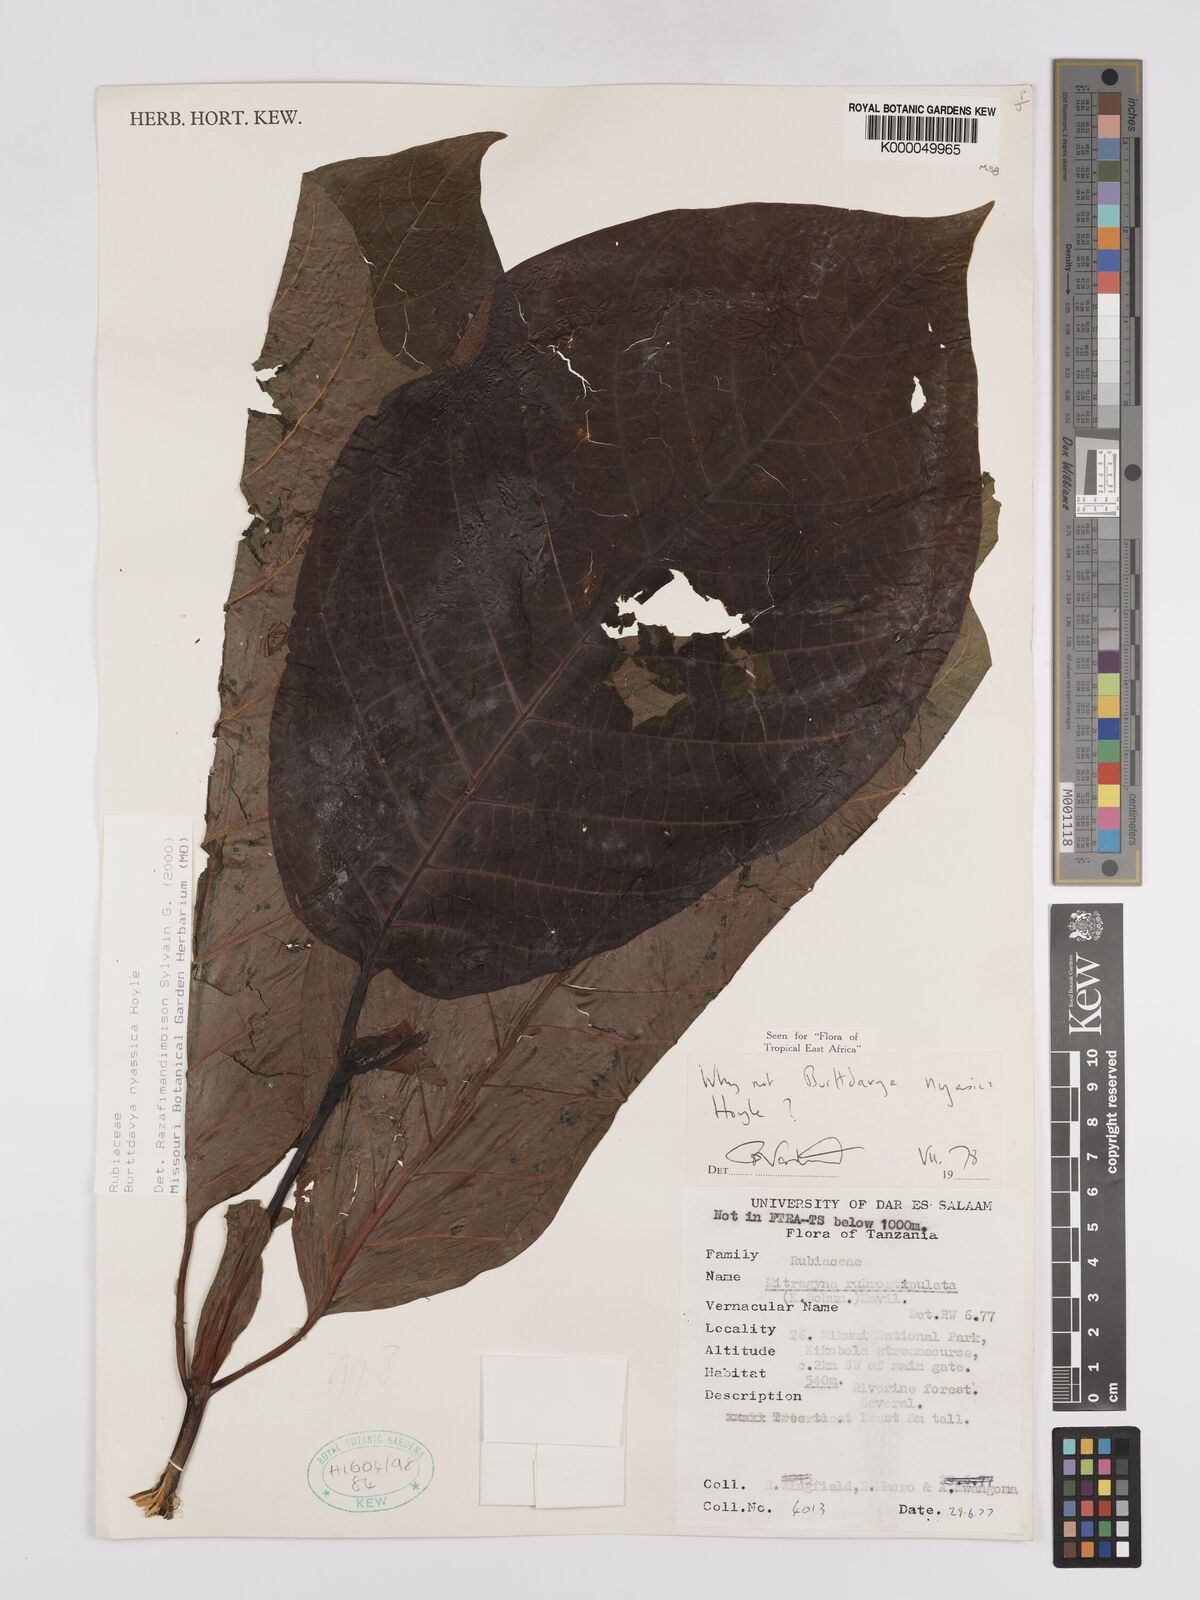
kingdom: Plantae
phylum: Tracheophyta
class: Magnoliopsida
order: Gentianales
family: Rubiaceae
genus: Nauclea
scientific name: Nauclea
